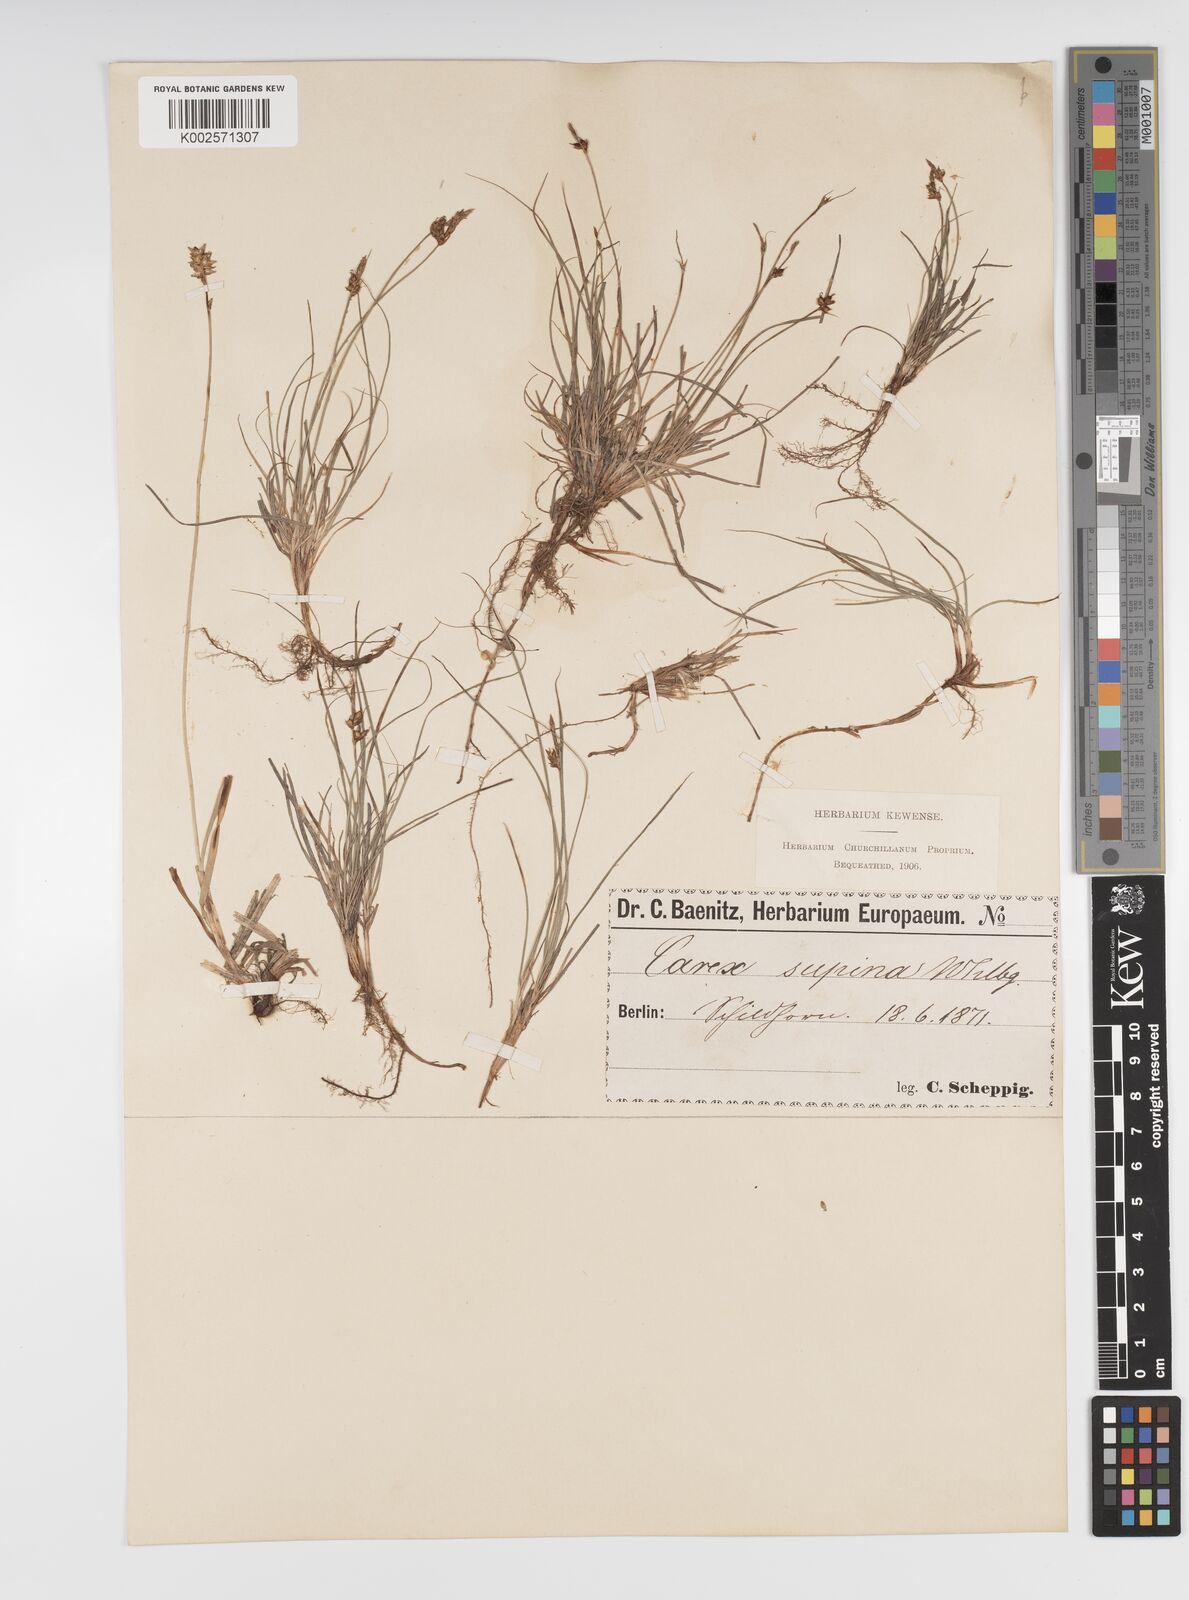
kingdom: Plantae
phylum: Tracheophyta
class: Liliopsida
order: Poales
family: Cyperaceae
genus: Carex
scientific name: Carex supina
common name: Lying-back sedge
